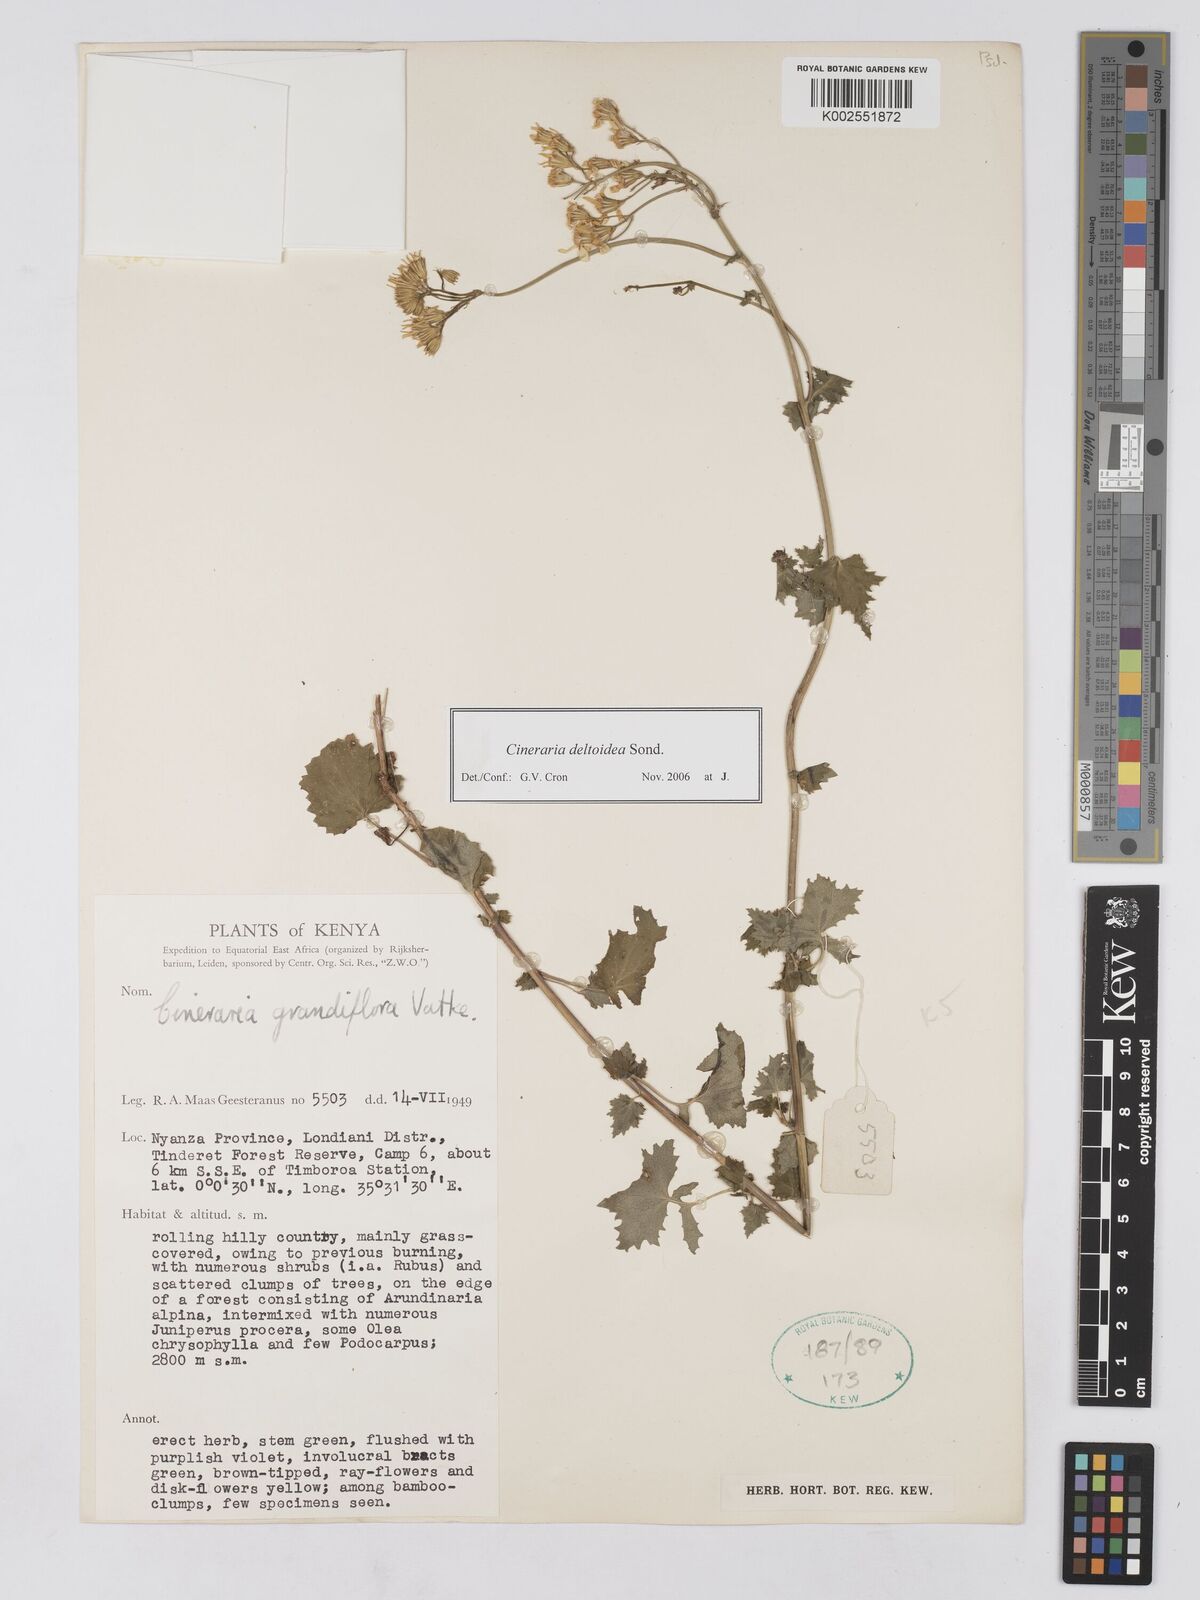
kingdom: Plantae
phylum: Tracheophyta
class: Magnoliopsida
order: Asterales
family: Asteraceae
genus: Cineraria
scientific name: Cineraria deltoidea
